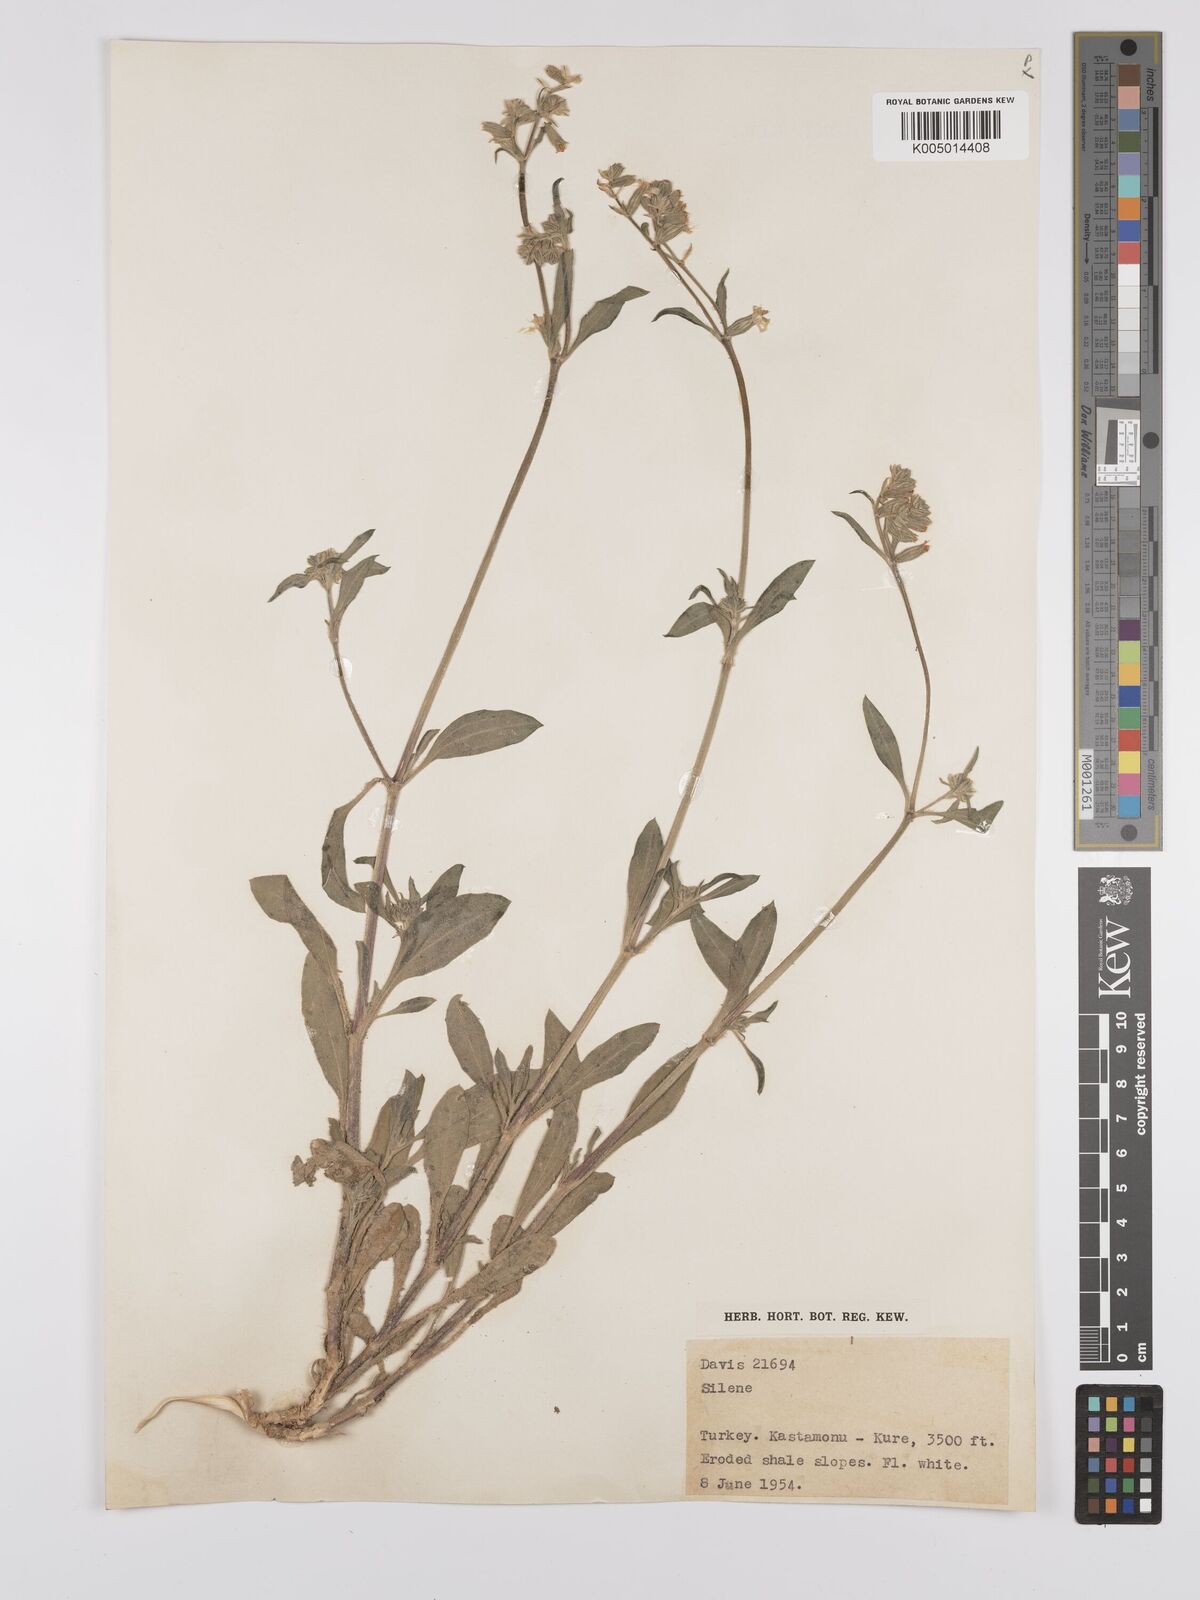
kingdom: Plantae
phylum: Tracheophyta
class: Magnoliopsida
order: Caryophyllales
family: Caryophyllaceae
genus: Silene
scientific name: Silene
